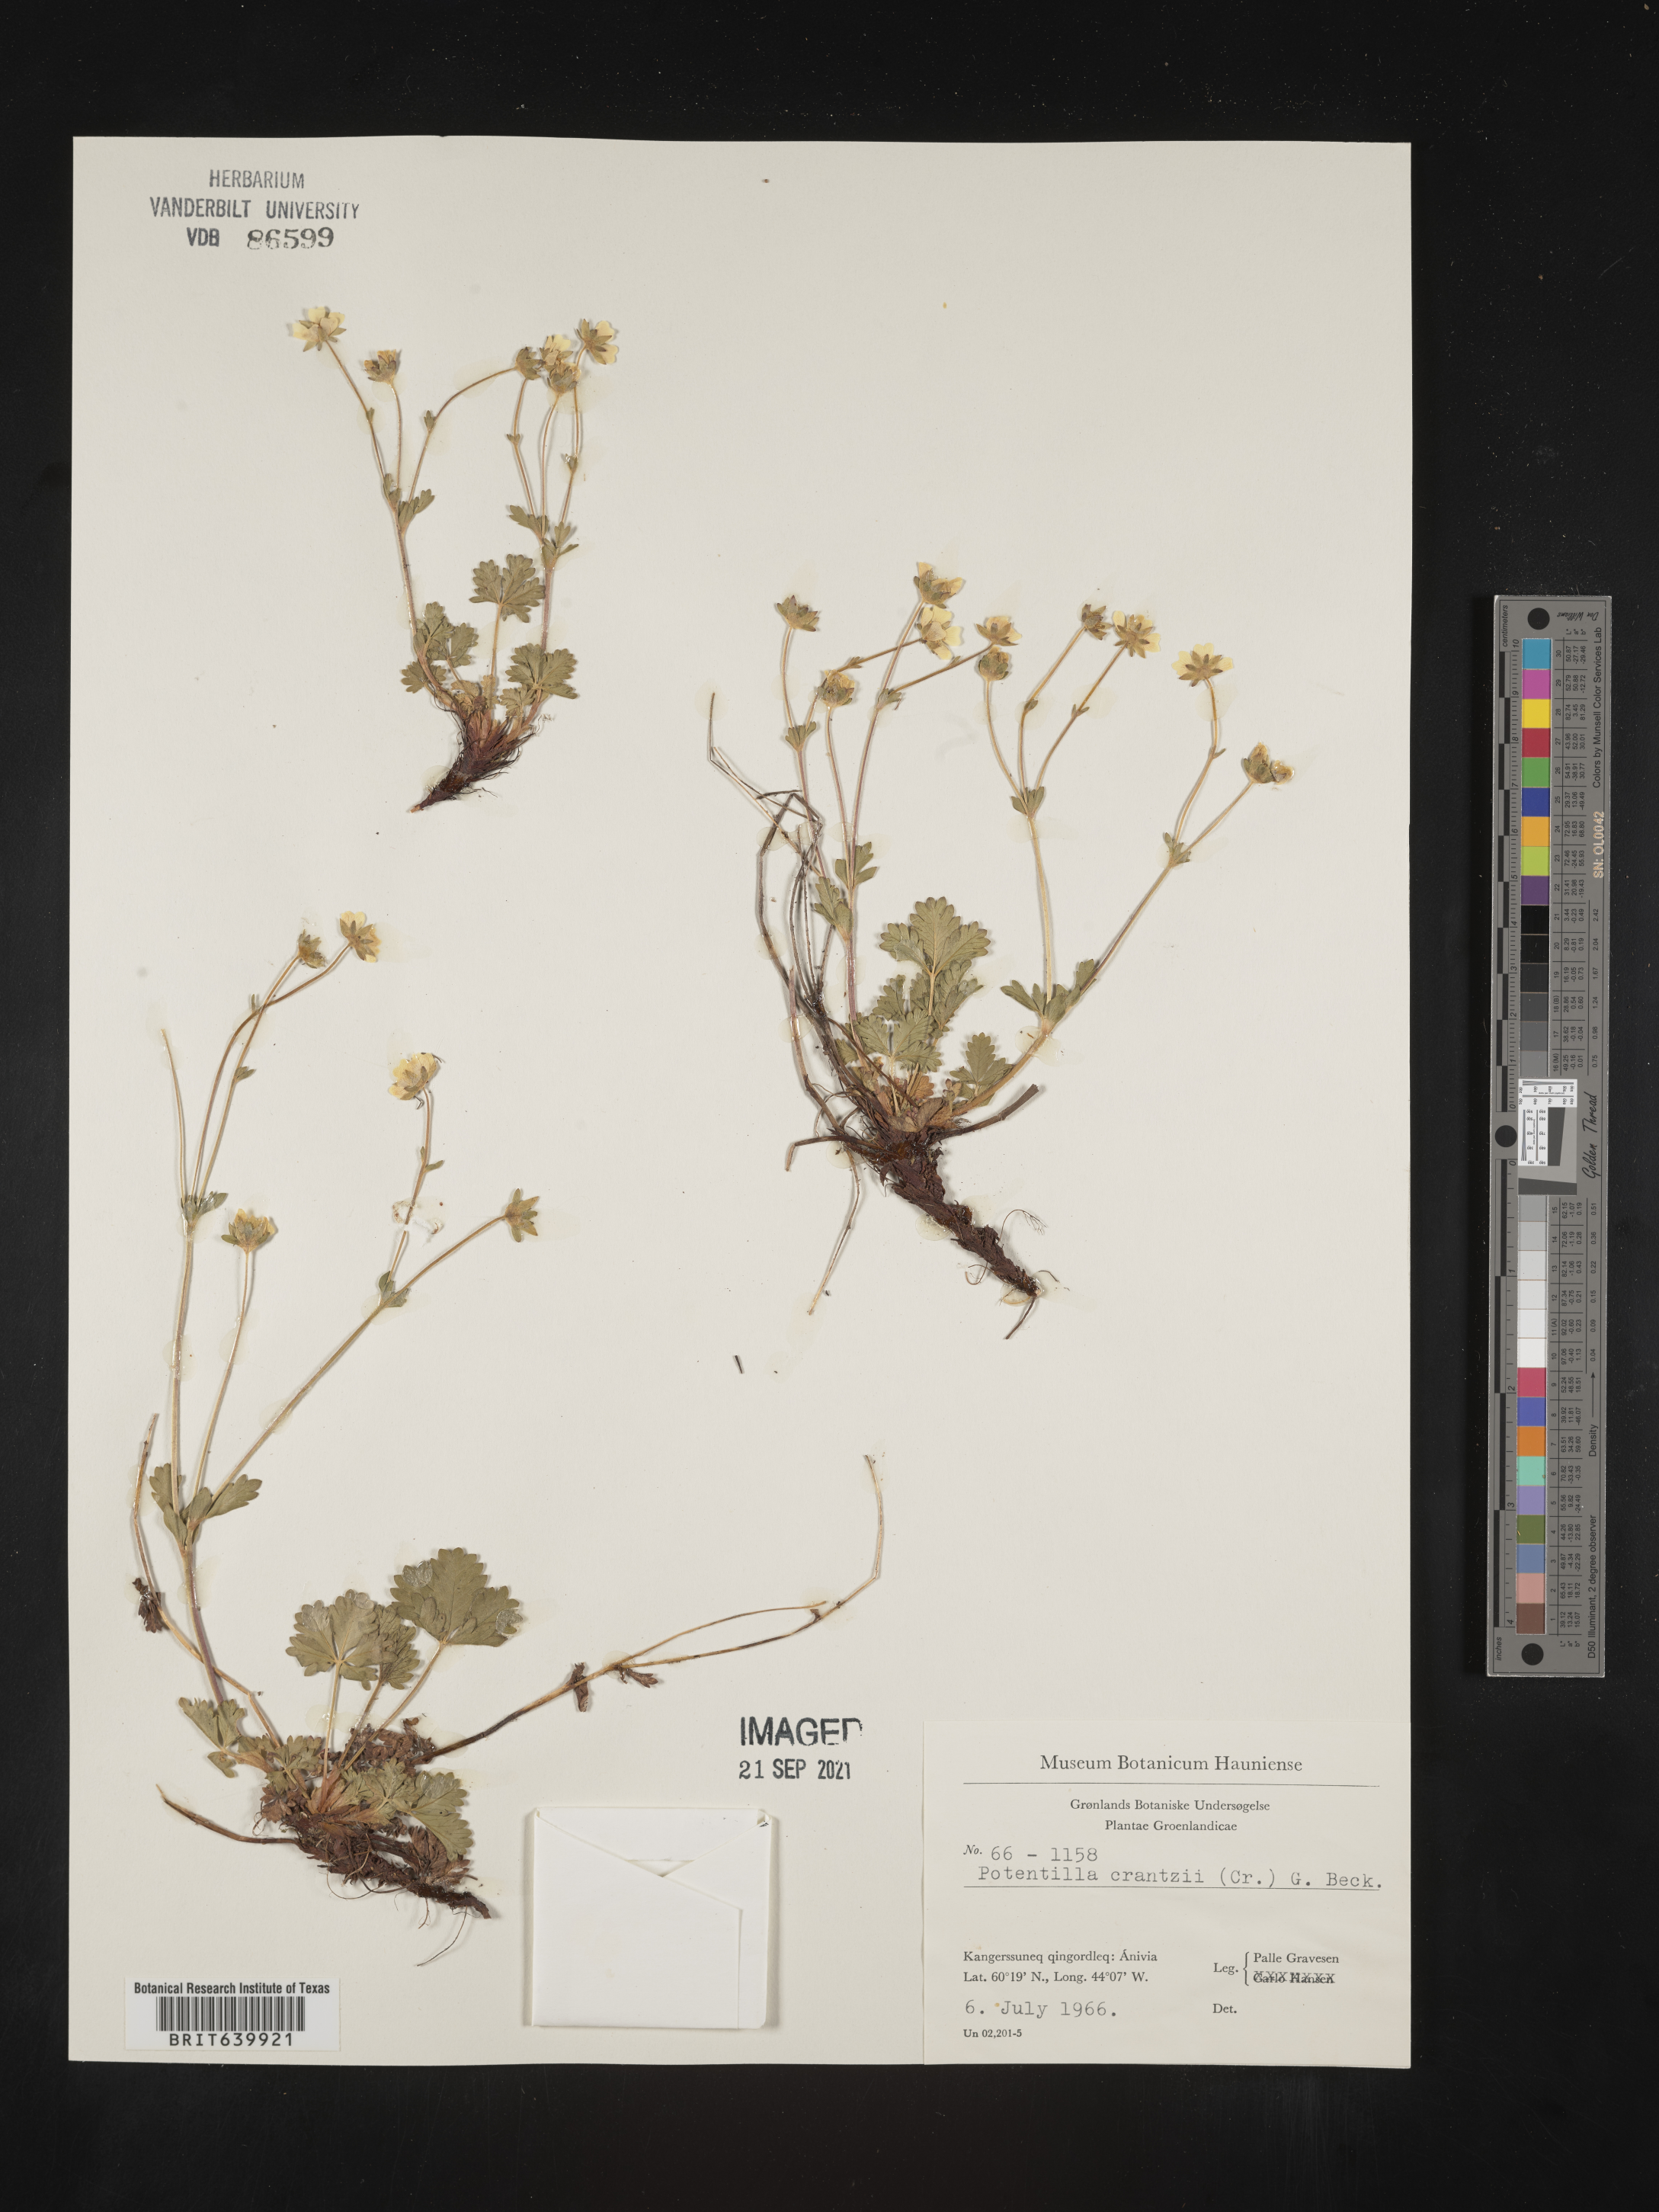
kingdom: Plantae
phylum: Tracheophyta
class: Magnoliopsida
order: Rosales
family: Rosaceae
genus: Potentilla
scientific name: Potentilla
